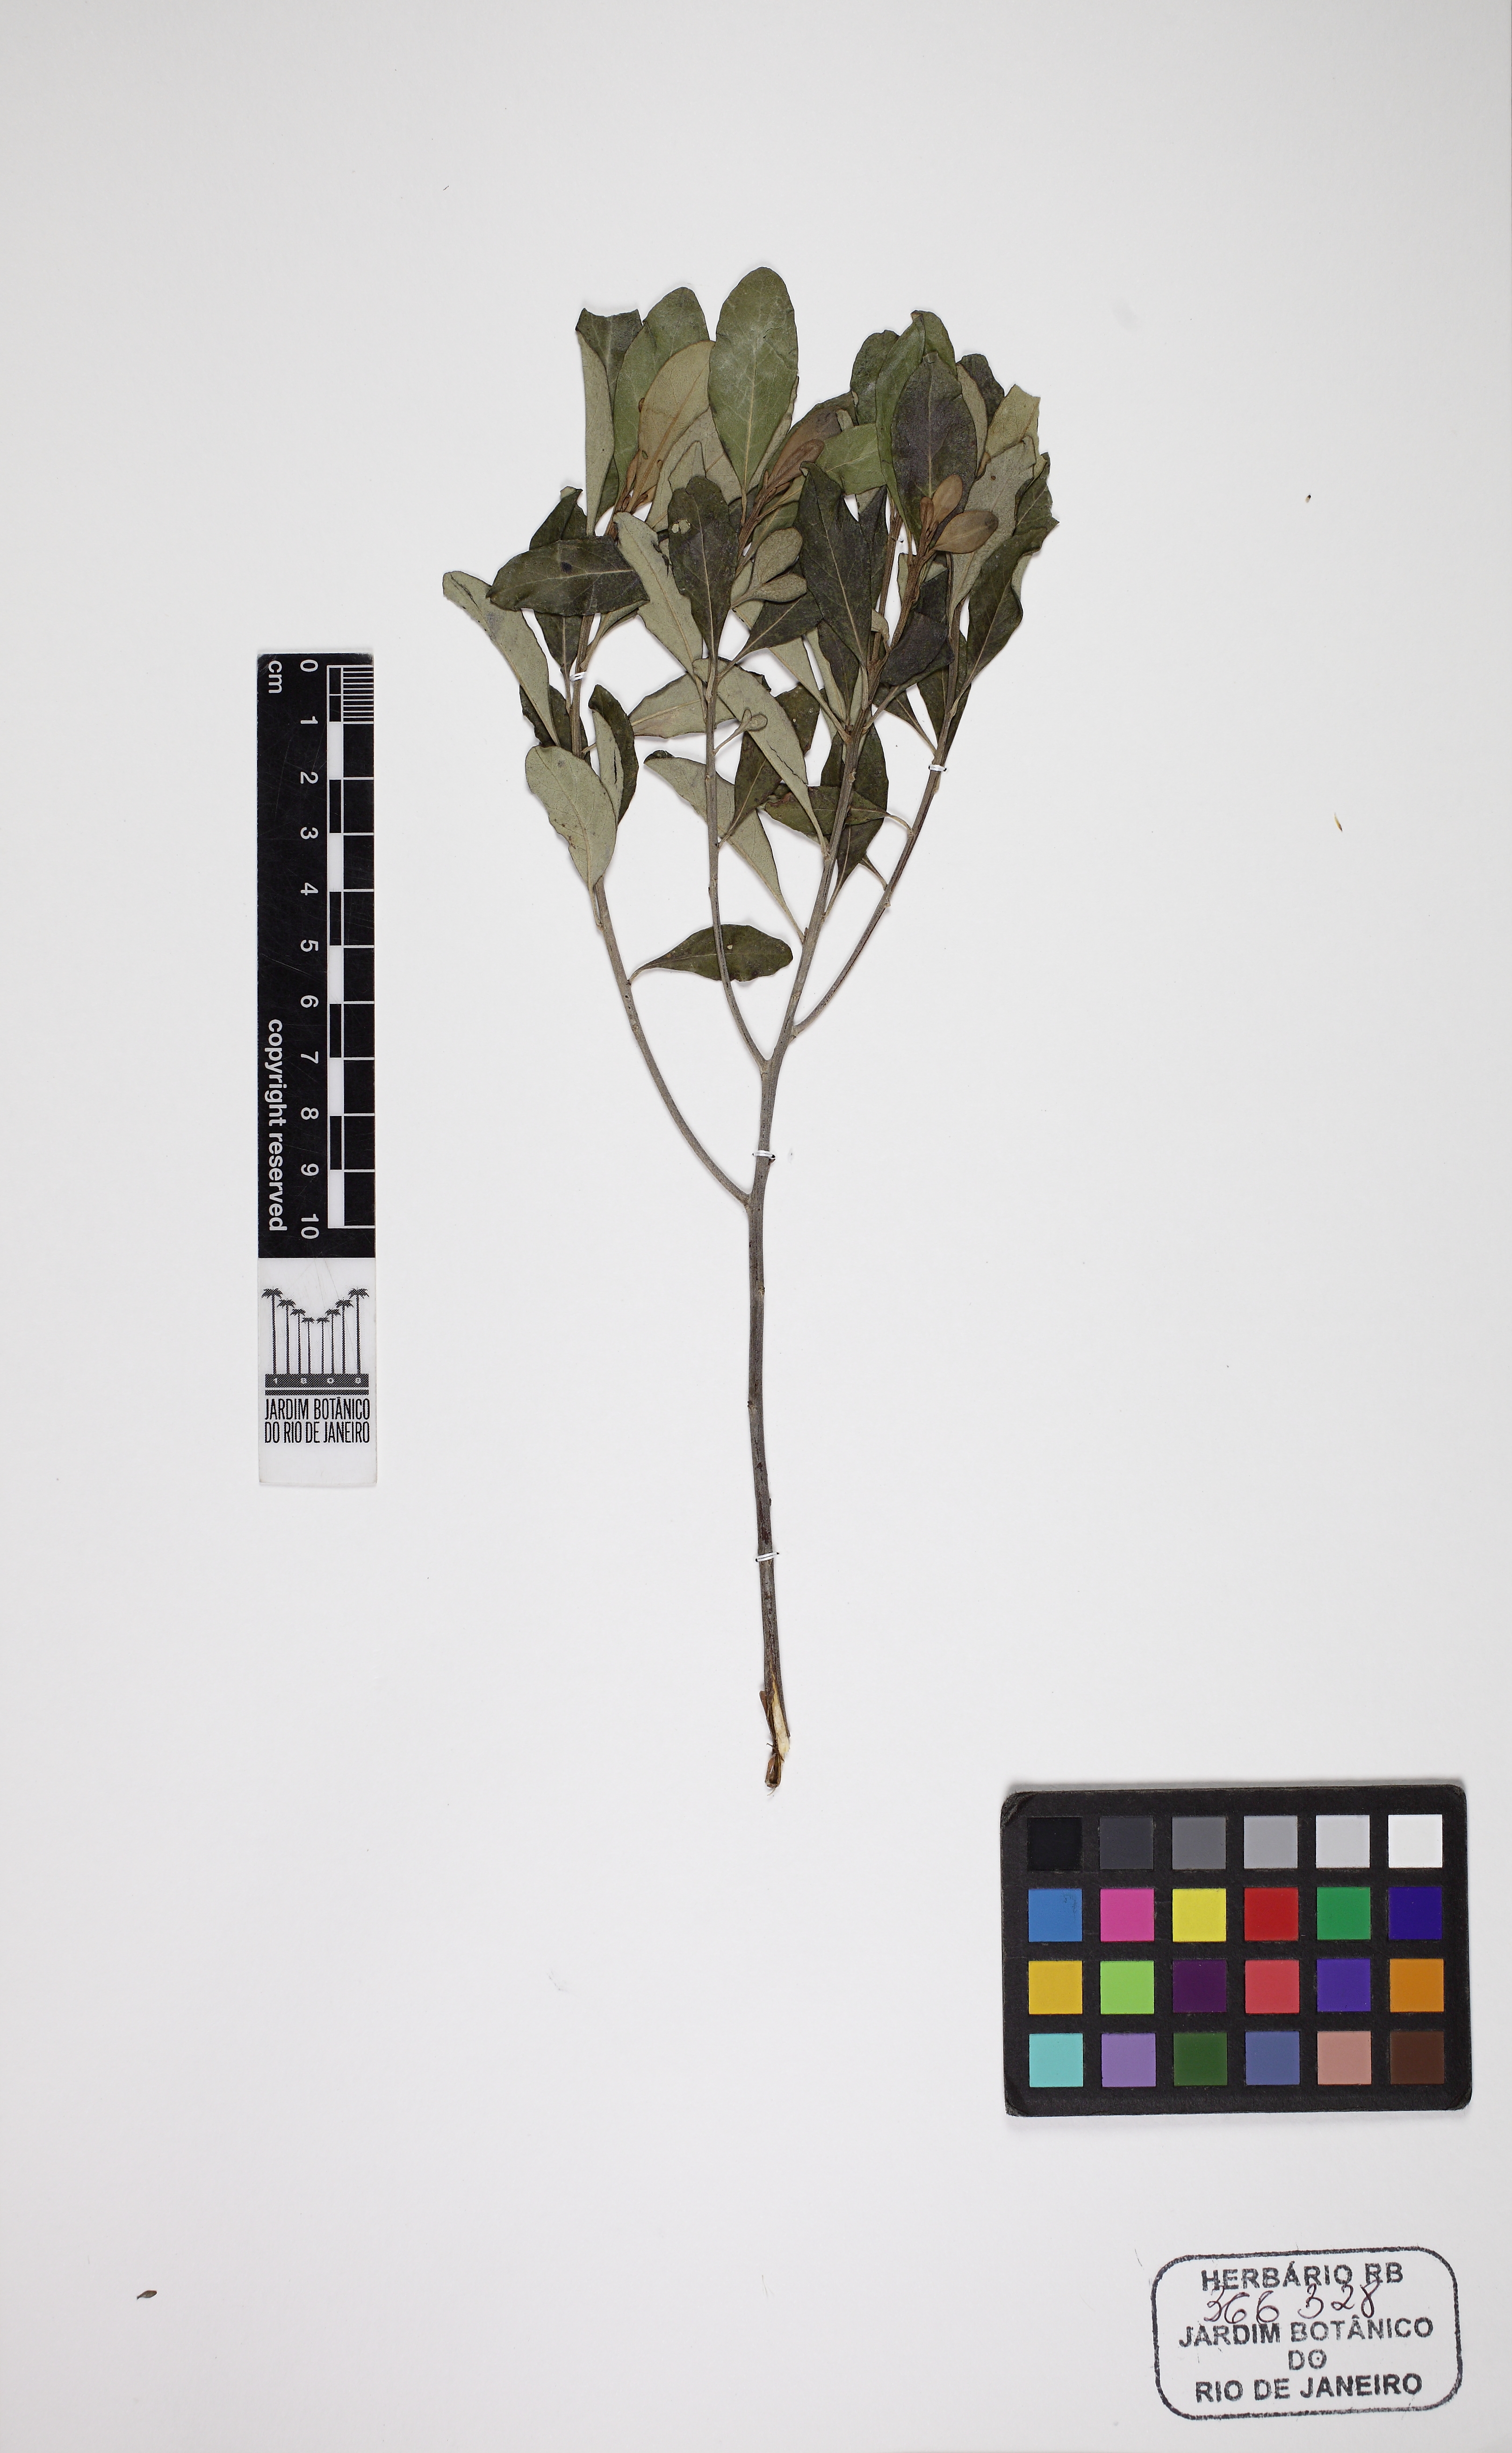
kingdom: Plantae
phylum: Tracheophyta
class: Magnoliopsida
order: Asterales
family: Asteraceae
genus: Eremanthus
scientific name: Eremanthus capitatus
